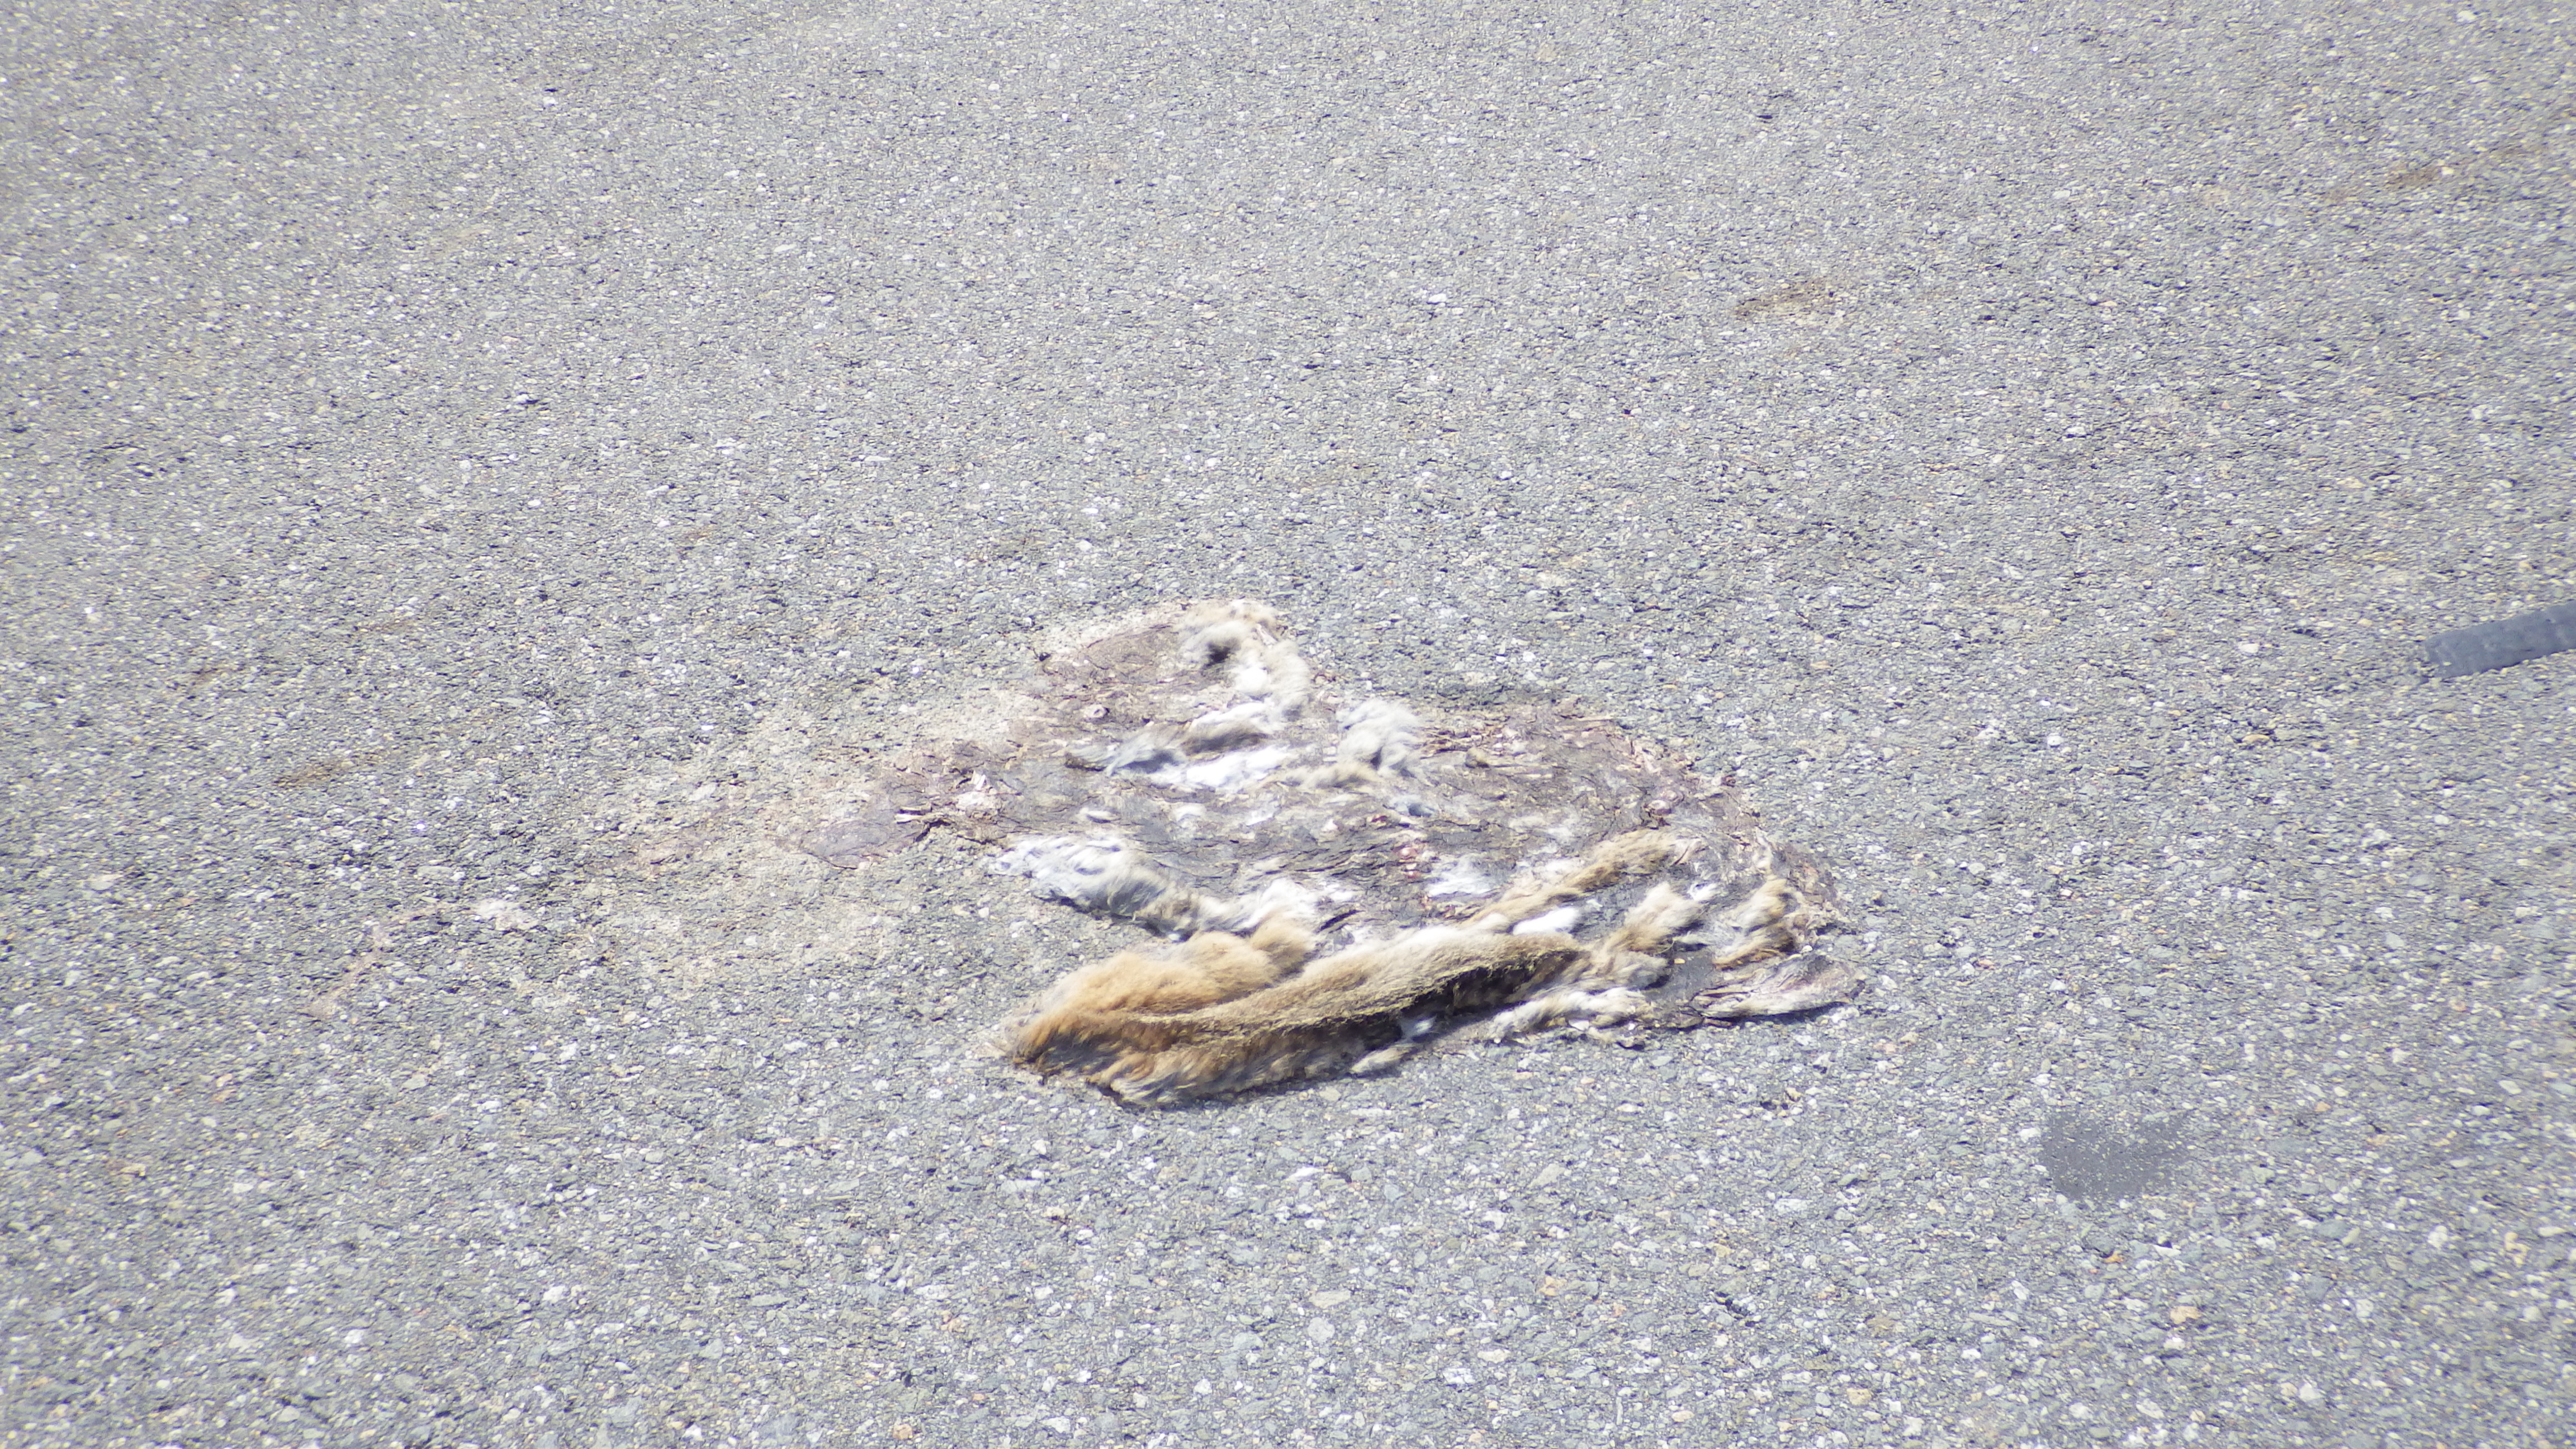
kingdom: Animalia
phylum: Chordata
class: Mammalia
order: Lagomorpha
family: Leporidae
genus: Lepus
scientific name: Lepus europaeus
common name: European hare
